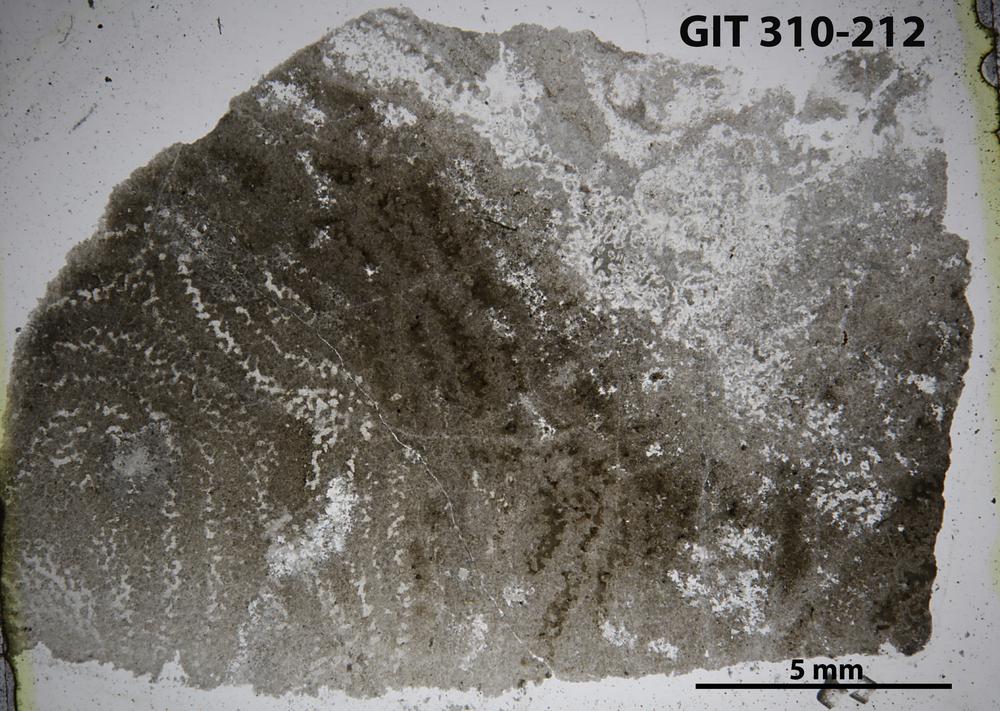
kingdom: Animalia
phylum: Porifera
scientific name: Porifera
